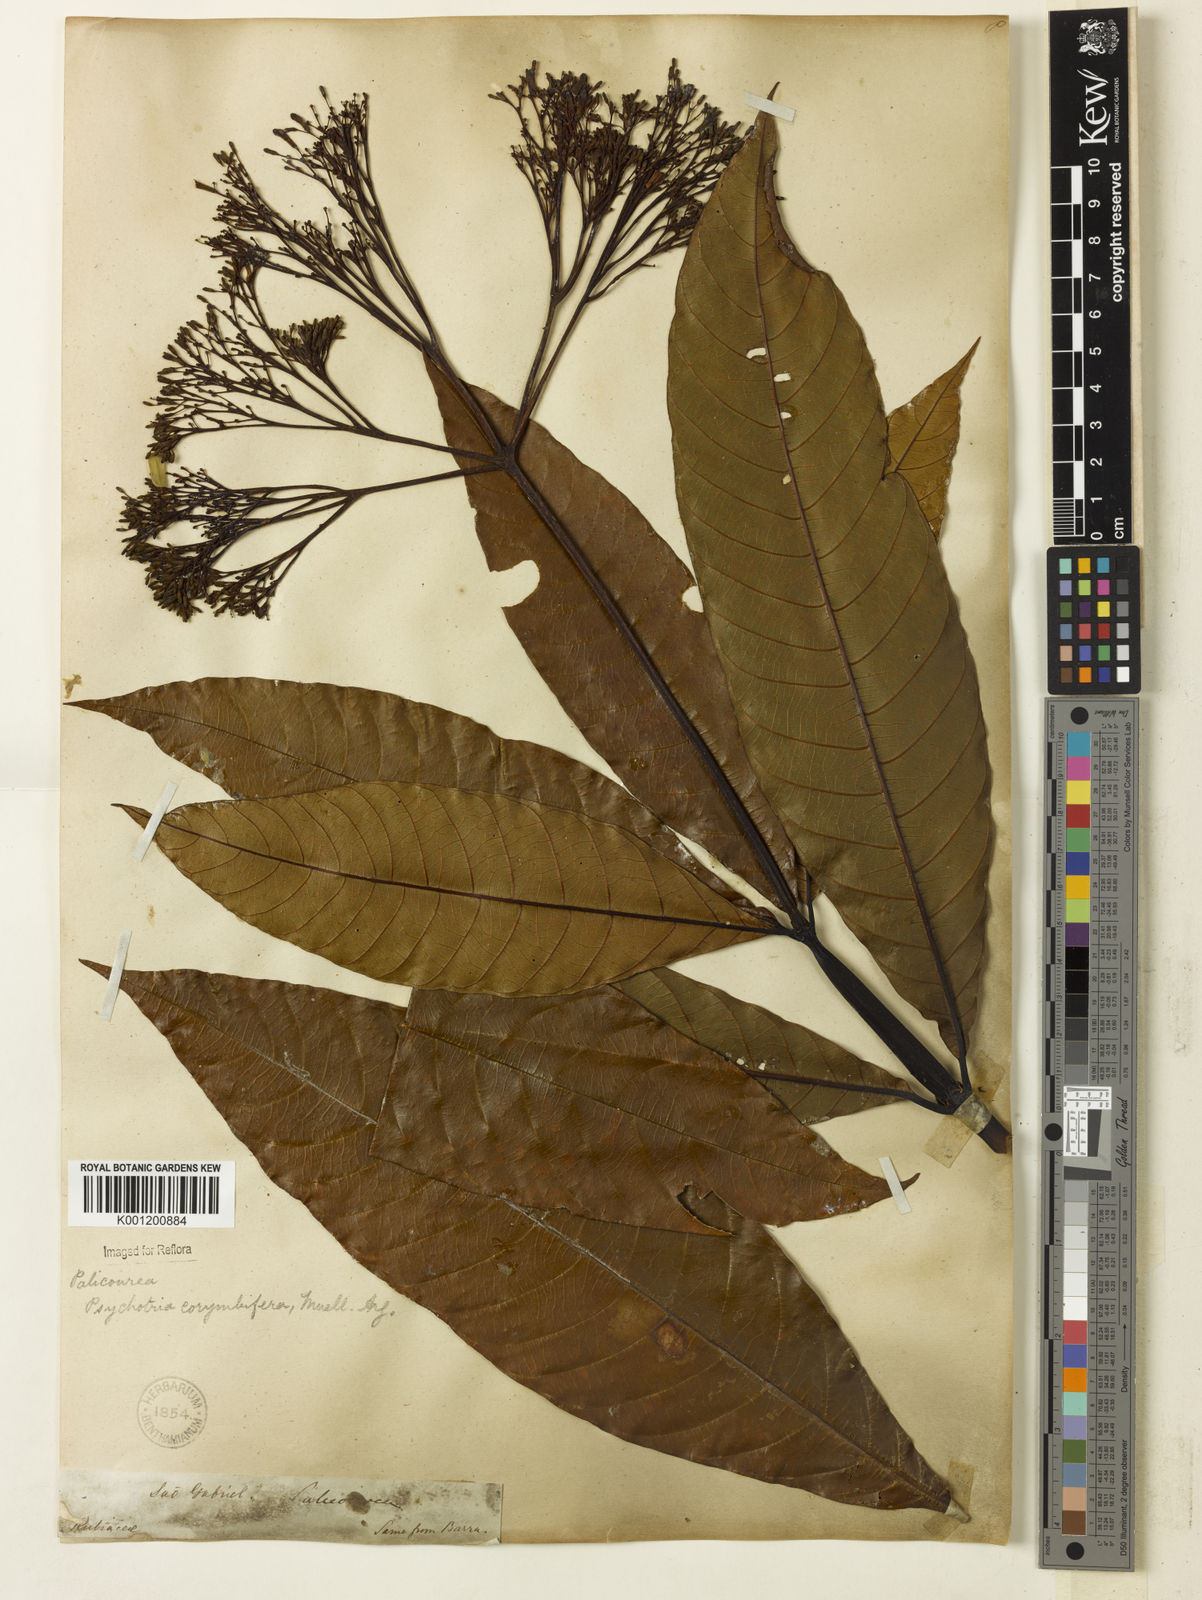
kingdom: Plantae
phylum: Tracheophyta
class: Magnoliopsida
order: Gentianales
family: Rubiaceae
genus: Palicourea
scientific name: Palicourea
